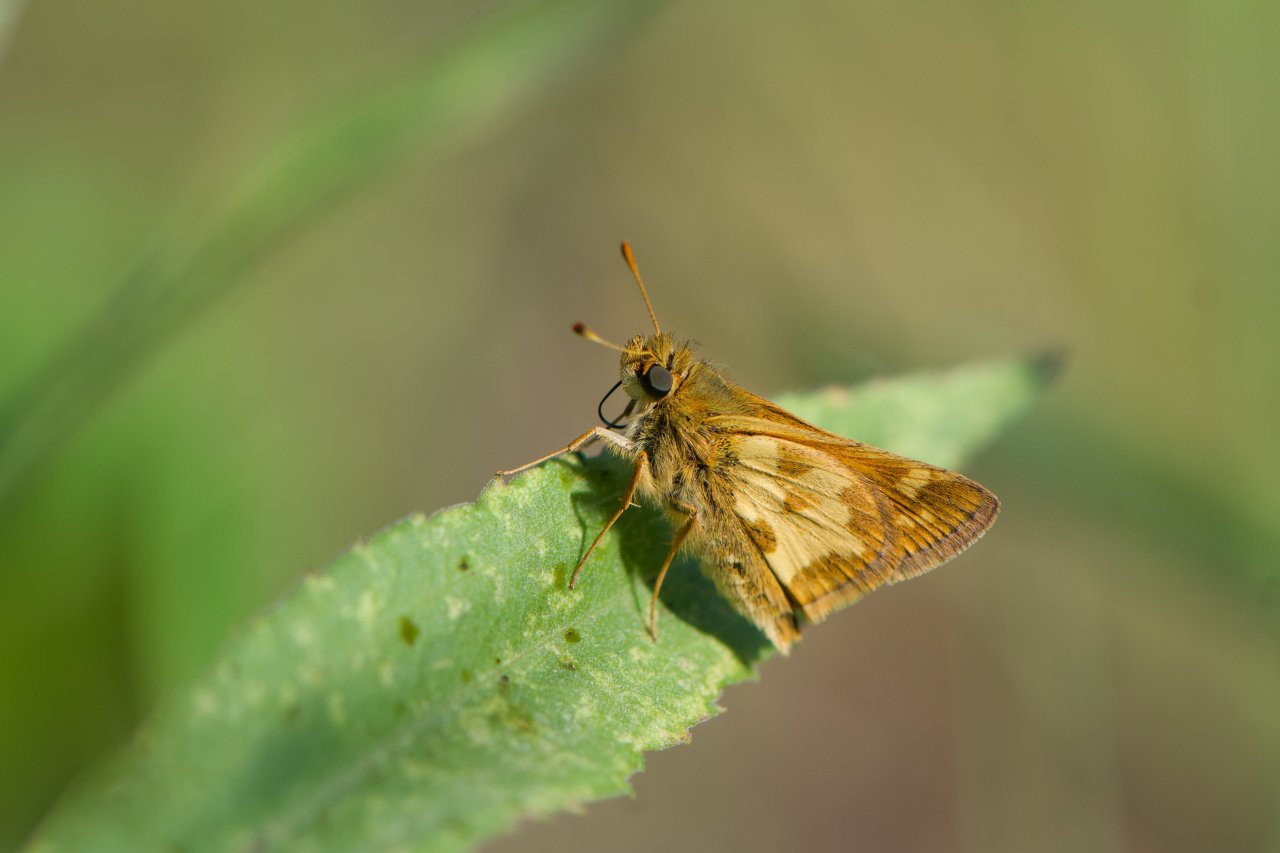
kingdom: Animalia
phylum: Arthropoda
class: Insecta
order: Lepidoptera
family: Hesperiidae
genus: Polites
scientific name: Polites coras
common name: Peck's Skipper
